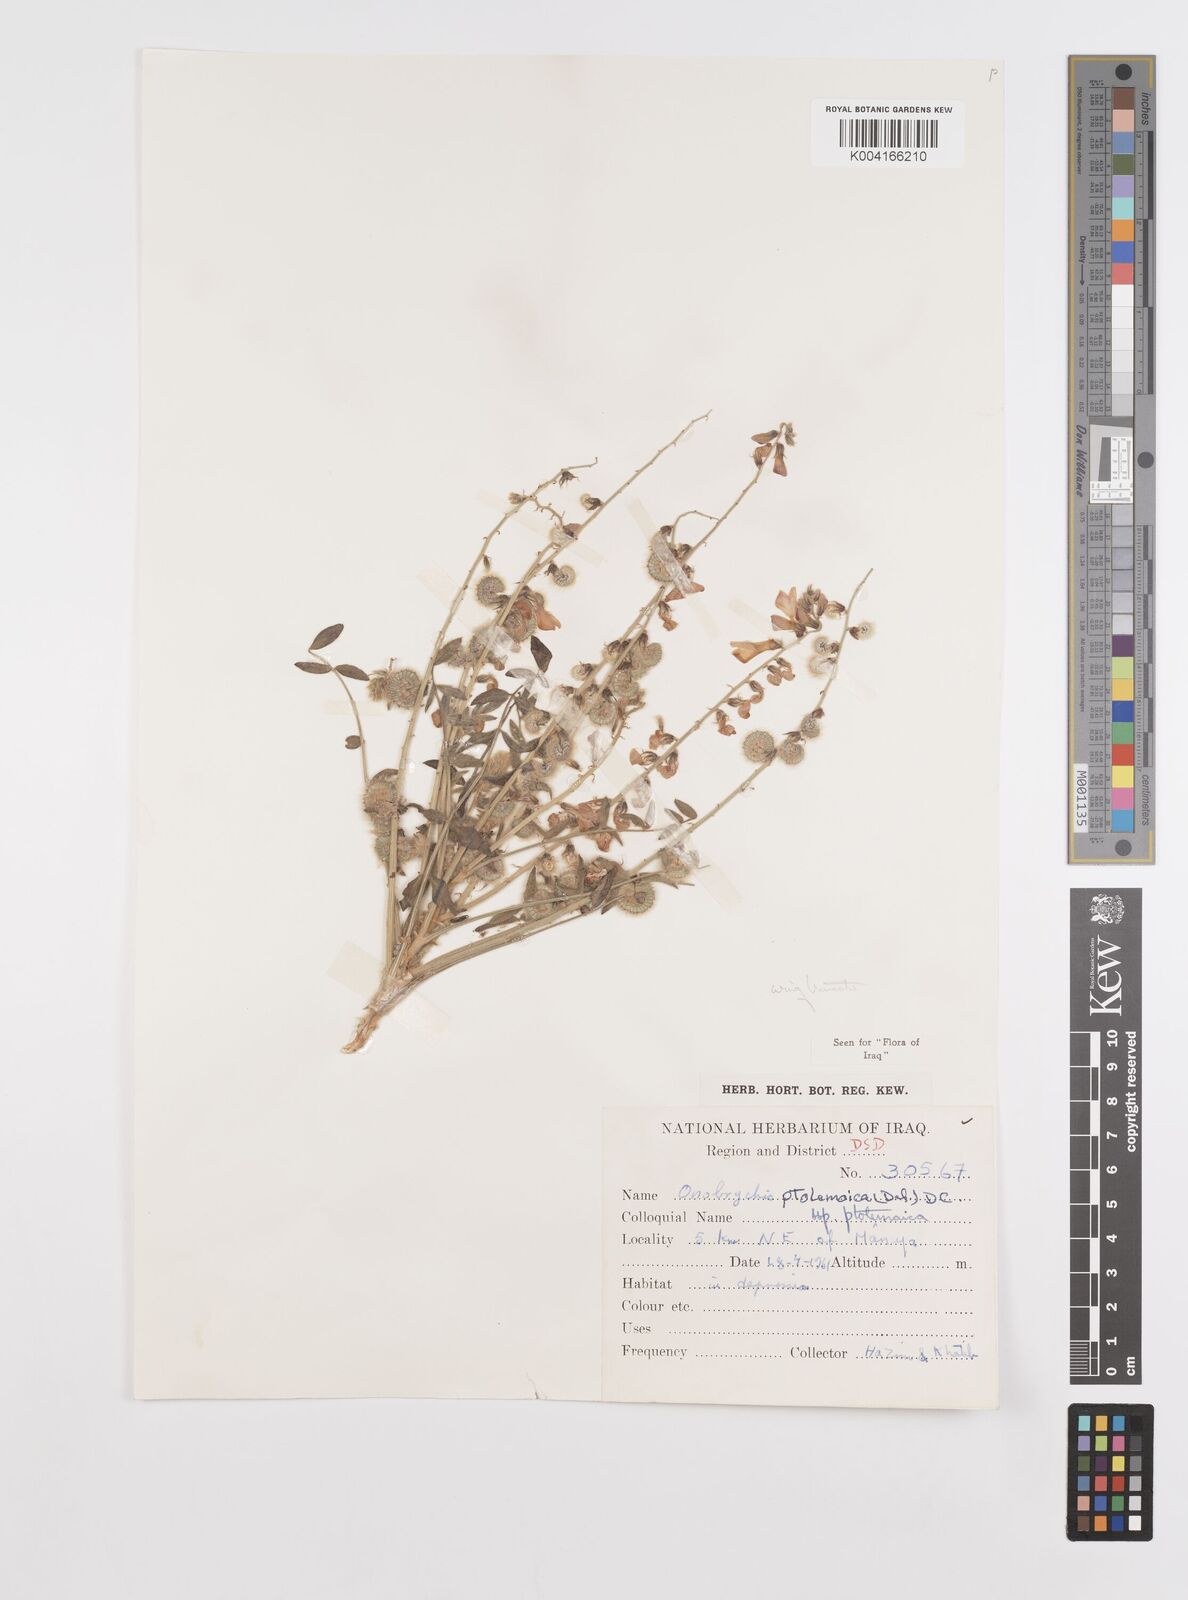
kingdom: Plantae
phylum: Tracheophyta
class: Magnoliopsida
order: Fabales
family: Fabaceae
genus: Onobrychis
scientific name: Onobrychis ptolemaica
